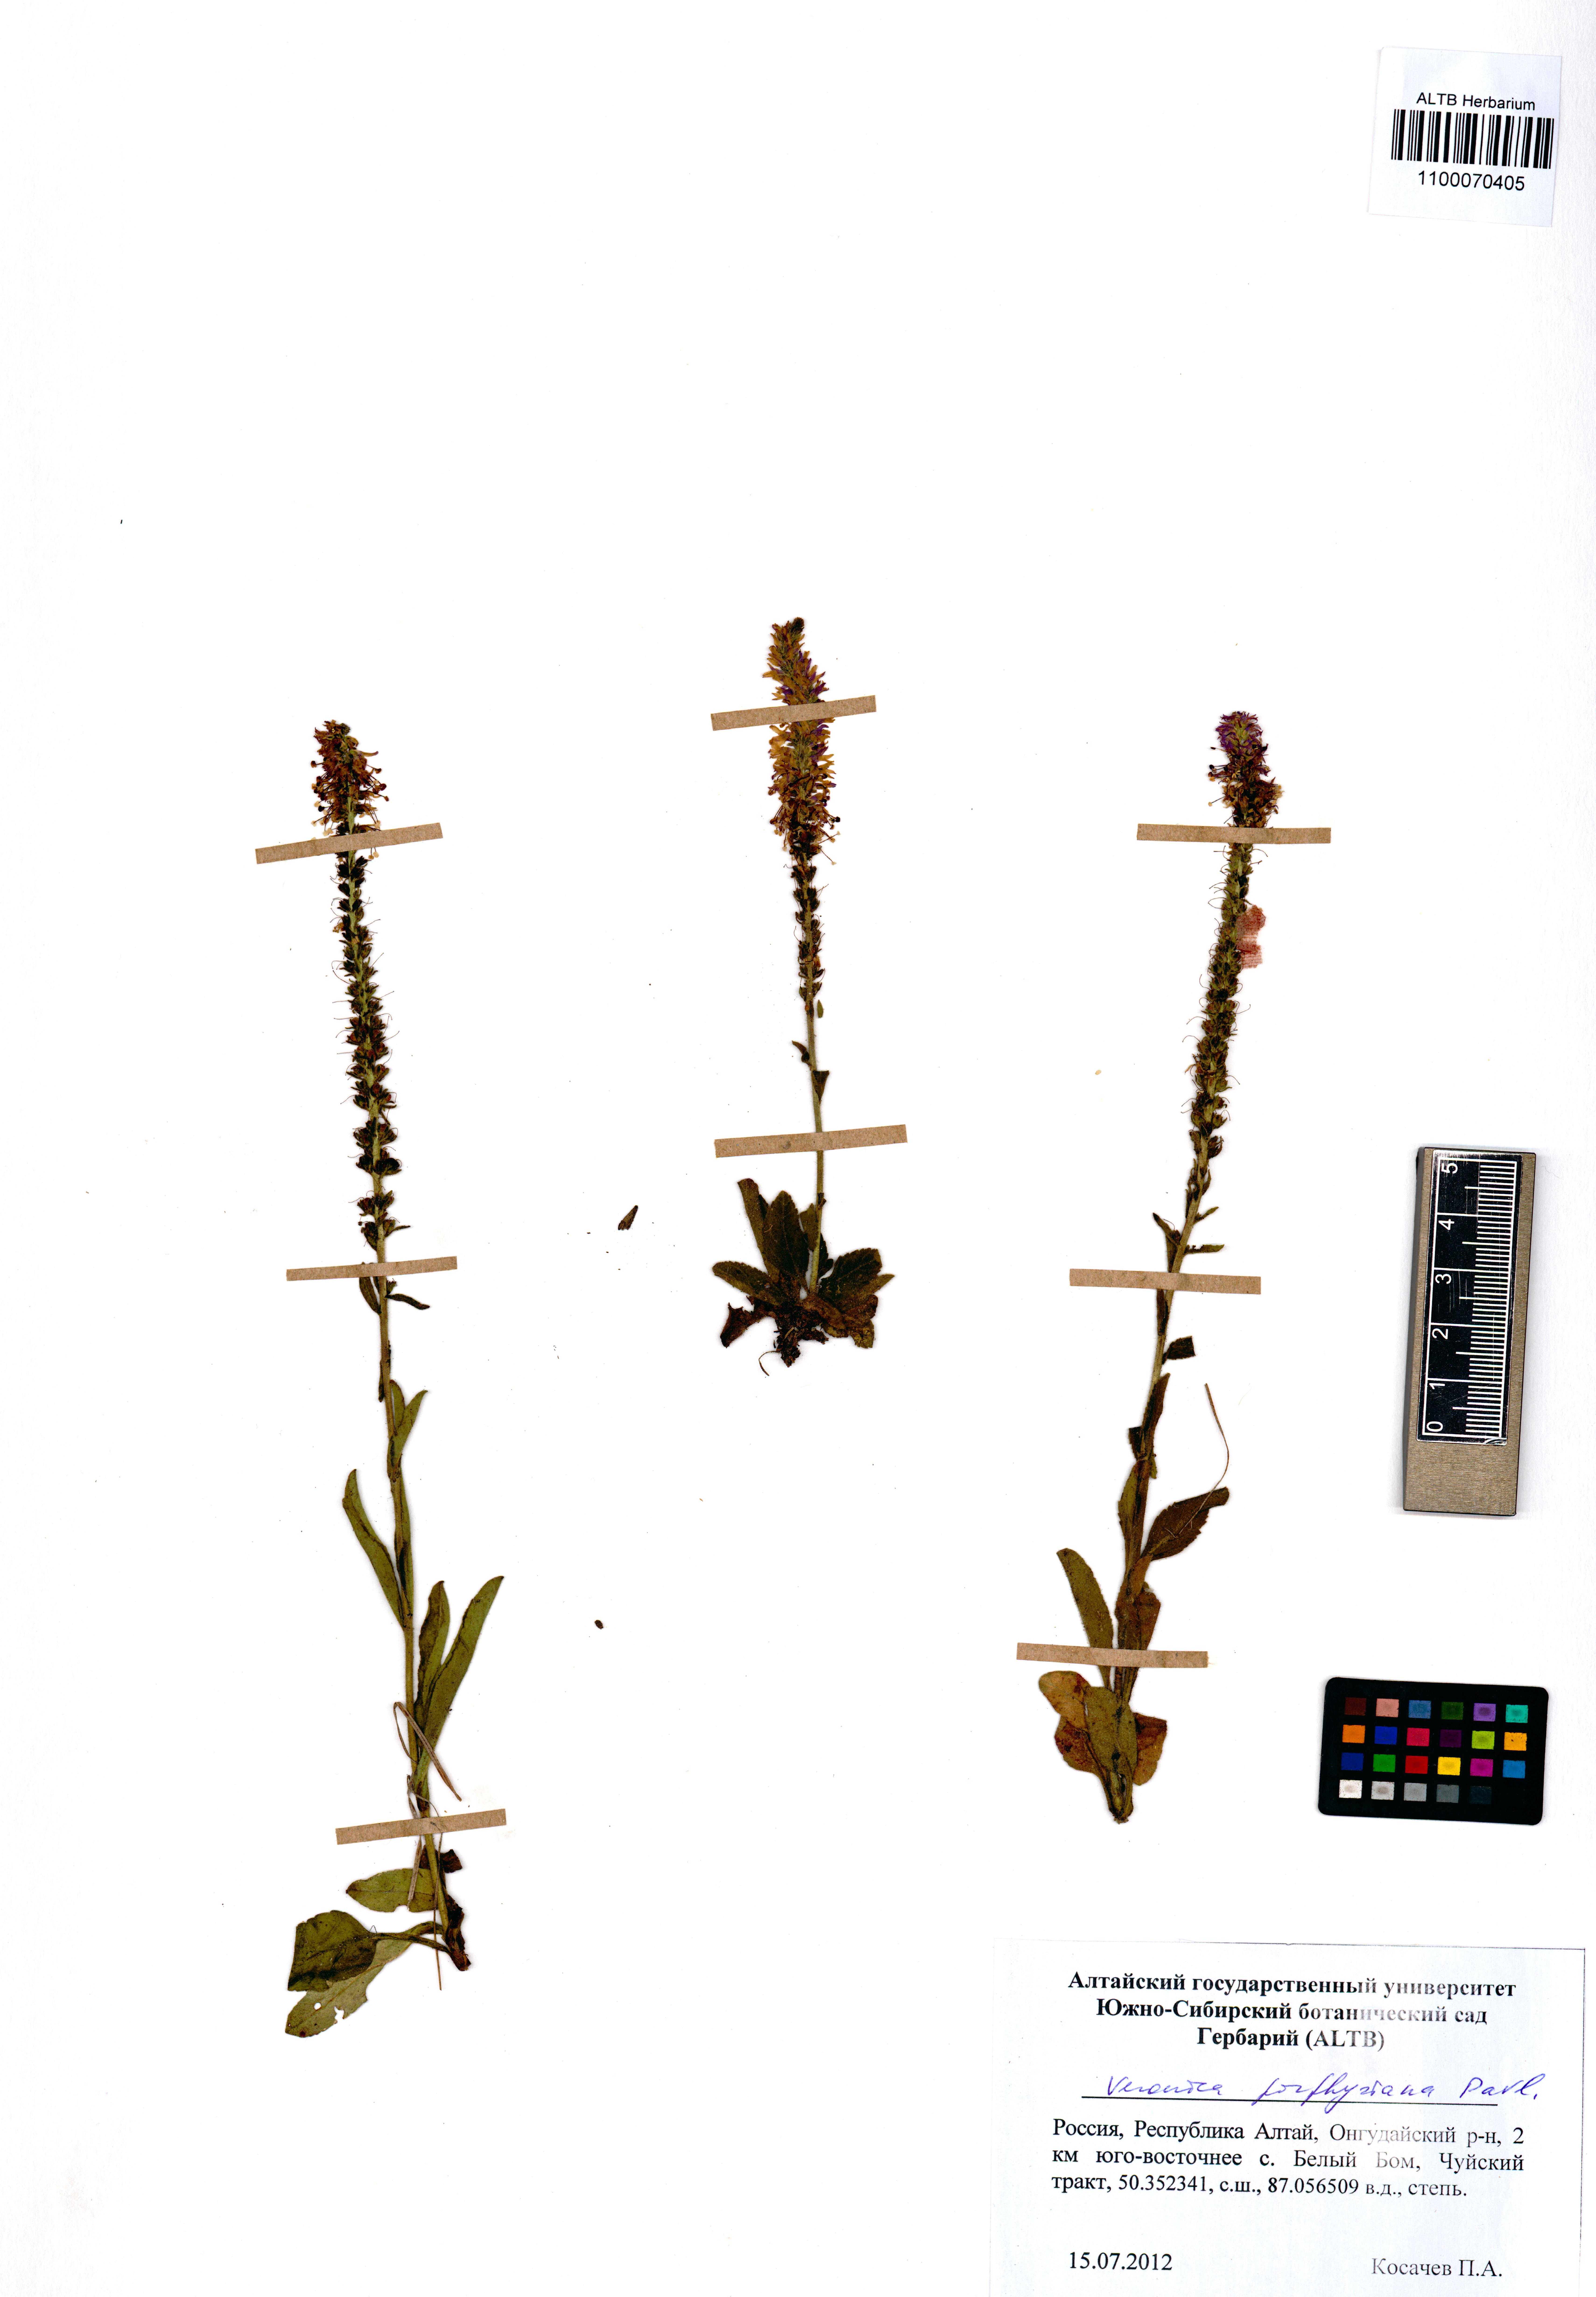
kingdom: Plantae
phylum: Tracheophyta
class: Magnoliopsida
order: Lamiales
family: Plantaginaceae
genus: Veronica
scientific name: Veronica porphyriana
